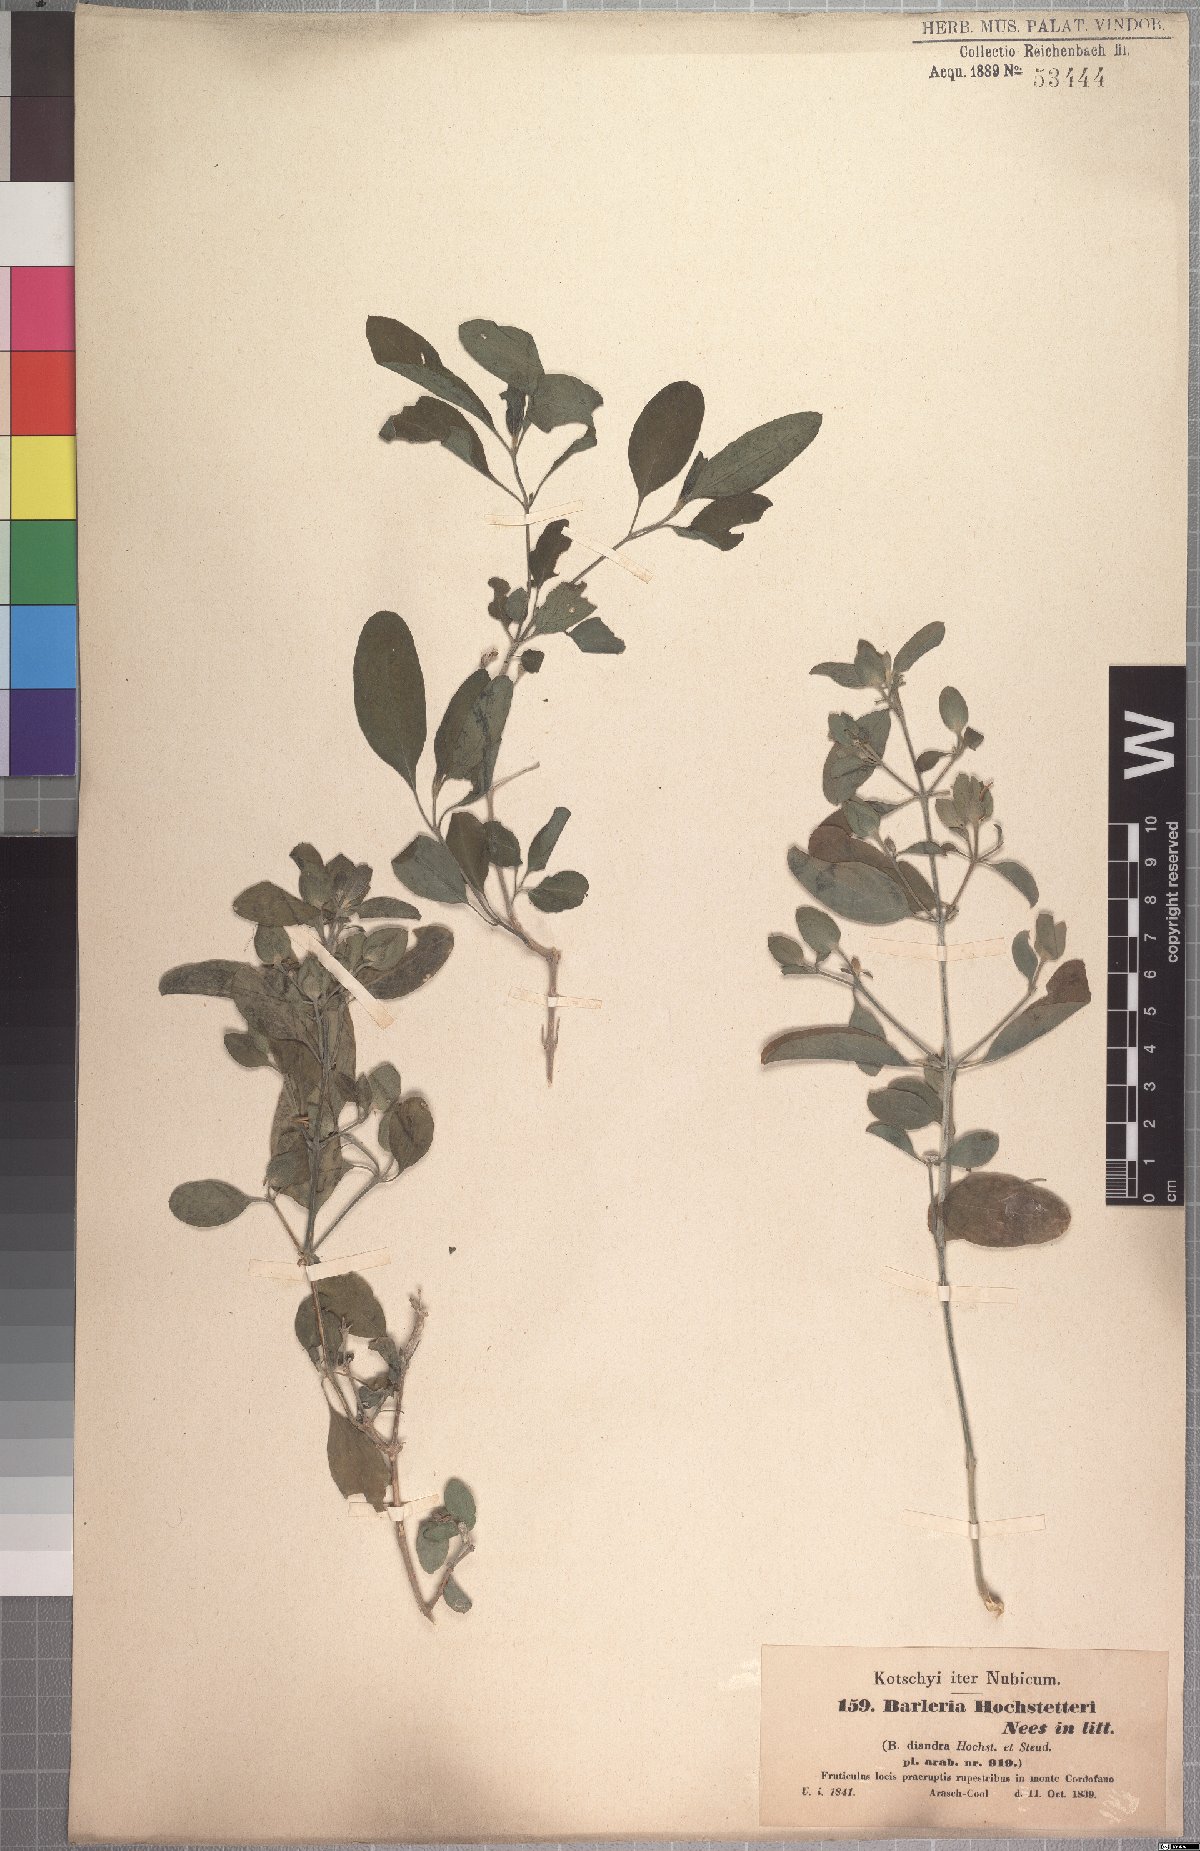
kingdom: Plantae
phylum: Tracheophyta
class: Magnoliopsida
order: Lamiales
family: Acanthaceae
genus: Barleria
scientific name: Barleria hochstetteri
